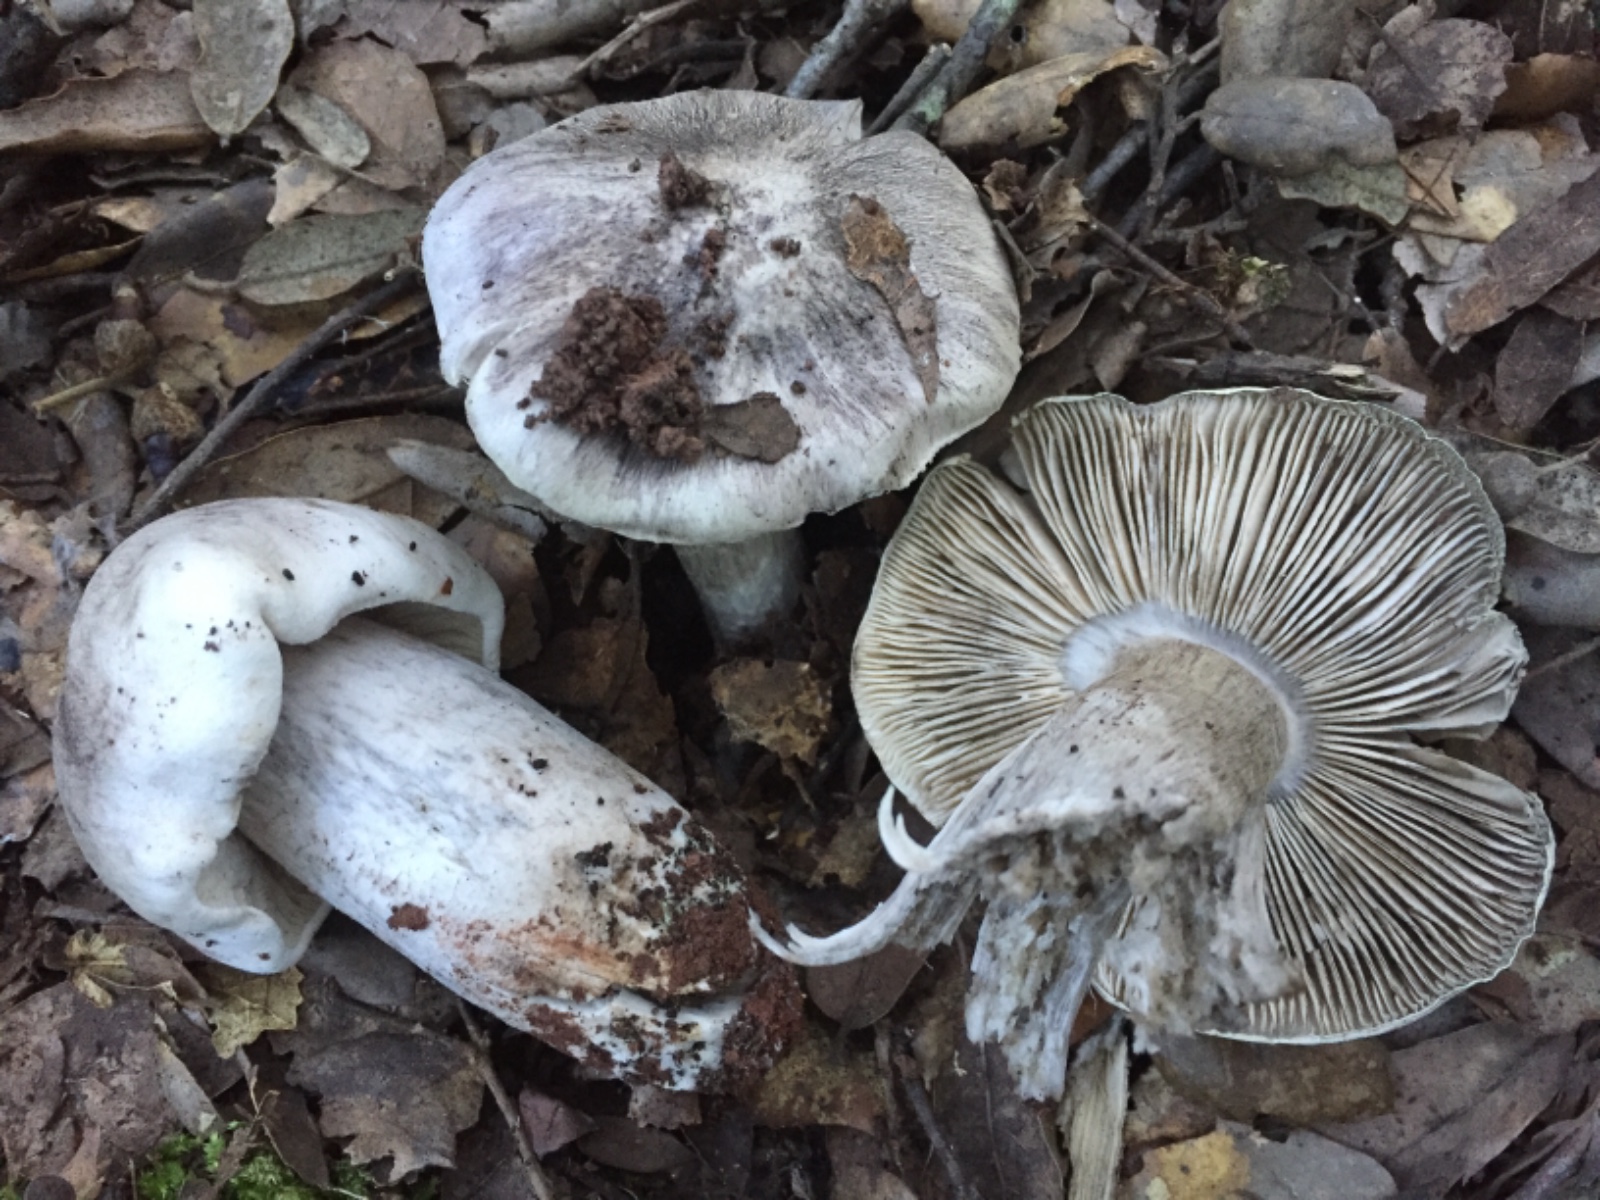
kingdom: Fungi
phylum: Basidiomycota
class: Agaricomycetes
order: Agaricales
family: Tricholomataceae
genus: Tricholoma
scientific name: Tricholoma bresadolanum
